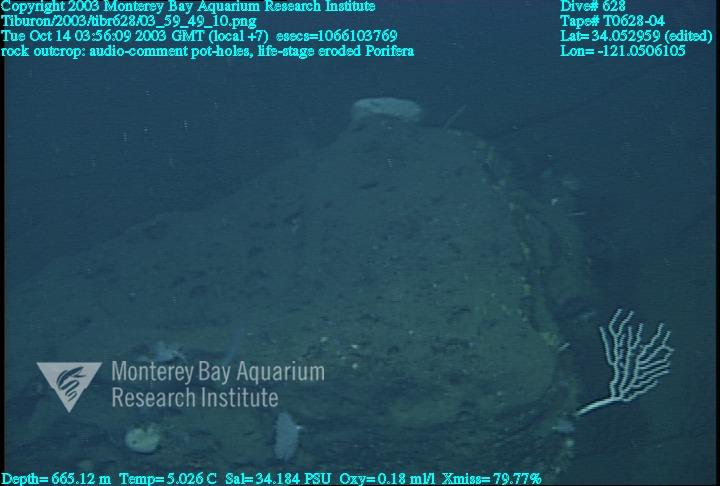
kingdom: Animalia
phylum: Porifera
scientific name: Porifera
